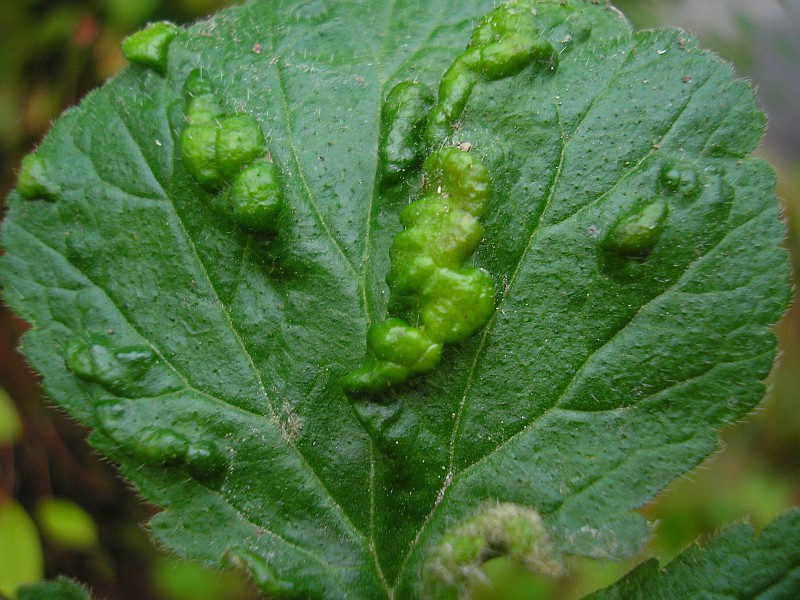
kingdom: Animalia
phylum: Arthropoda
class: Arachnida
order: Trombidiformes
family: Eriophyidae
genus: Cecidophyes
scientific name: Cecidophyes nudus
